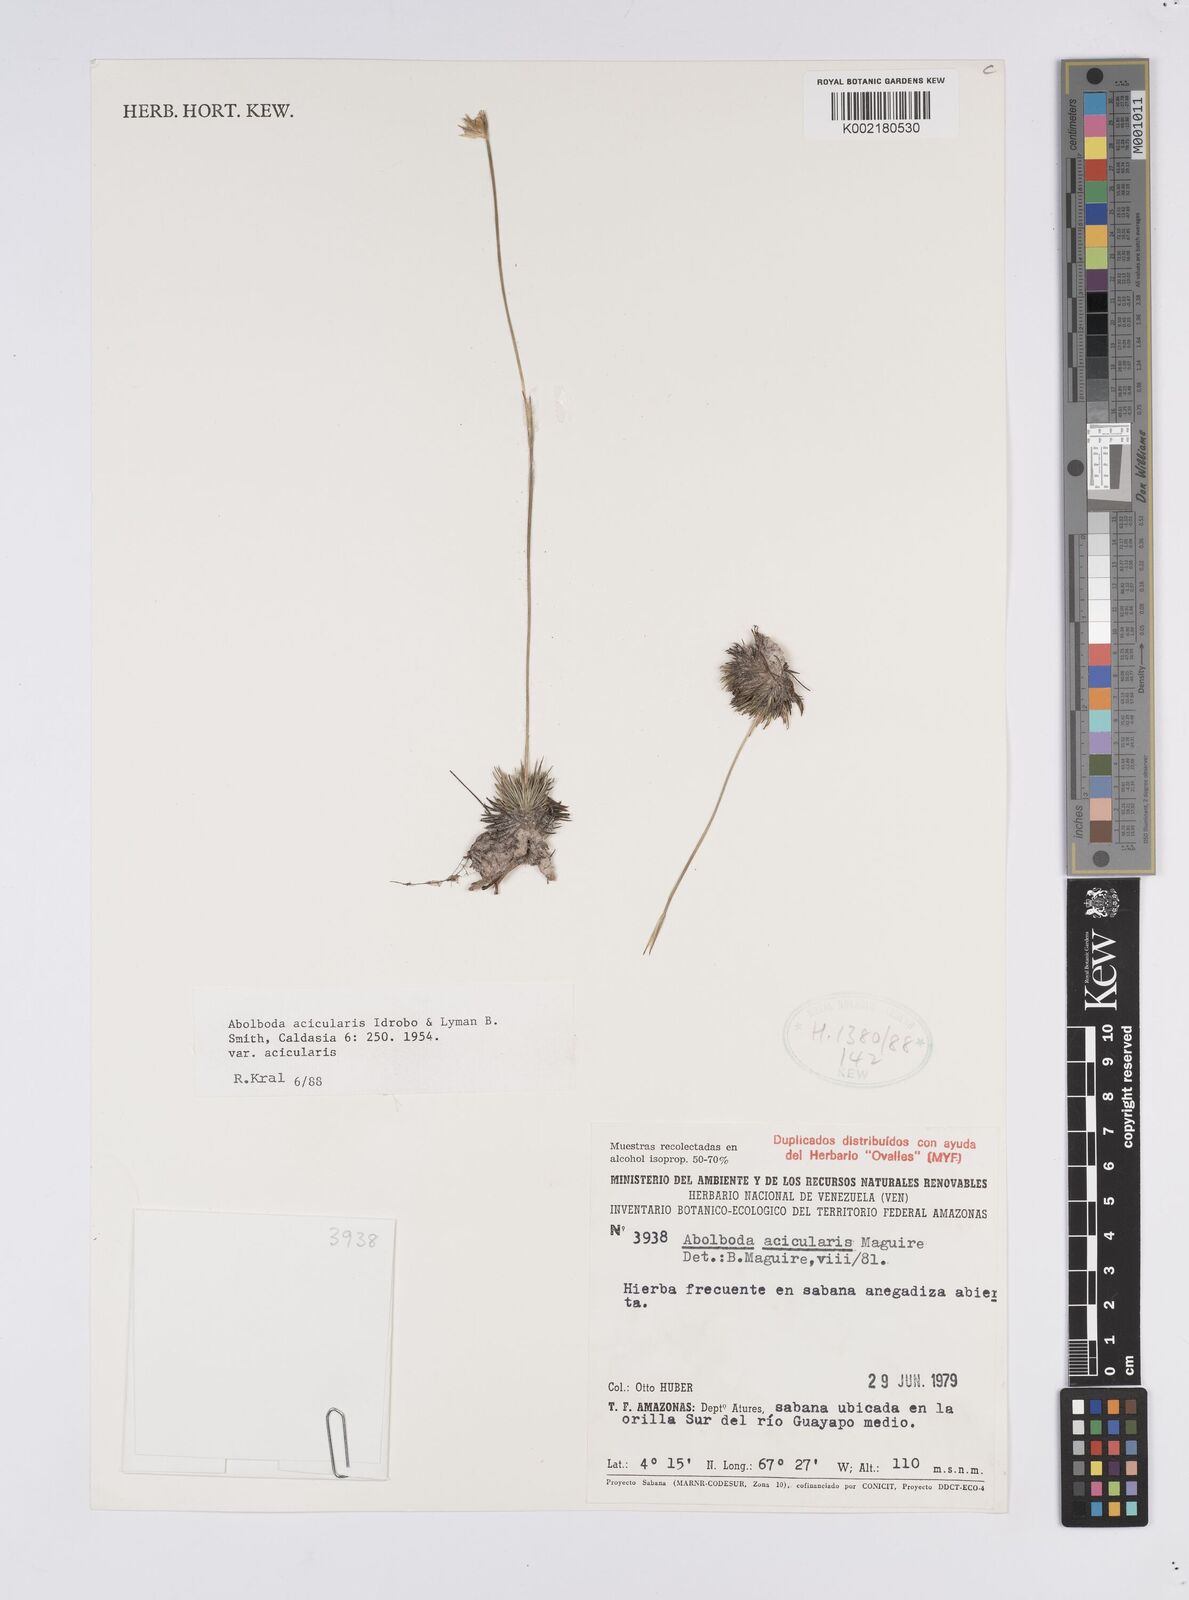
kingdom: Plantae
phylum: Tracheophyta
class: Liliopsida
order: Poales
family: Xyridaceae
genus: Abolboda
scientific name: Abolboda acicularis
